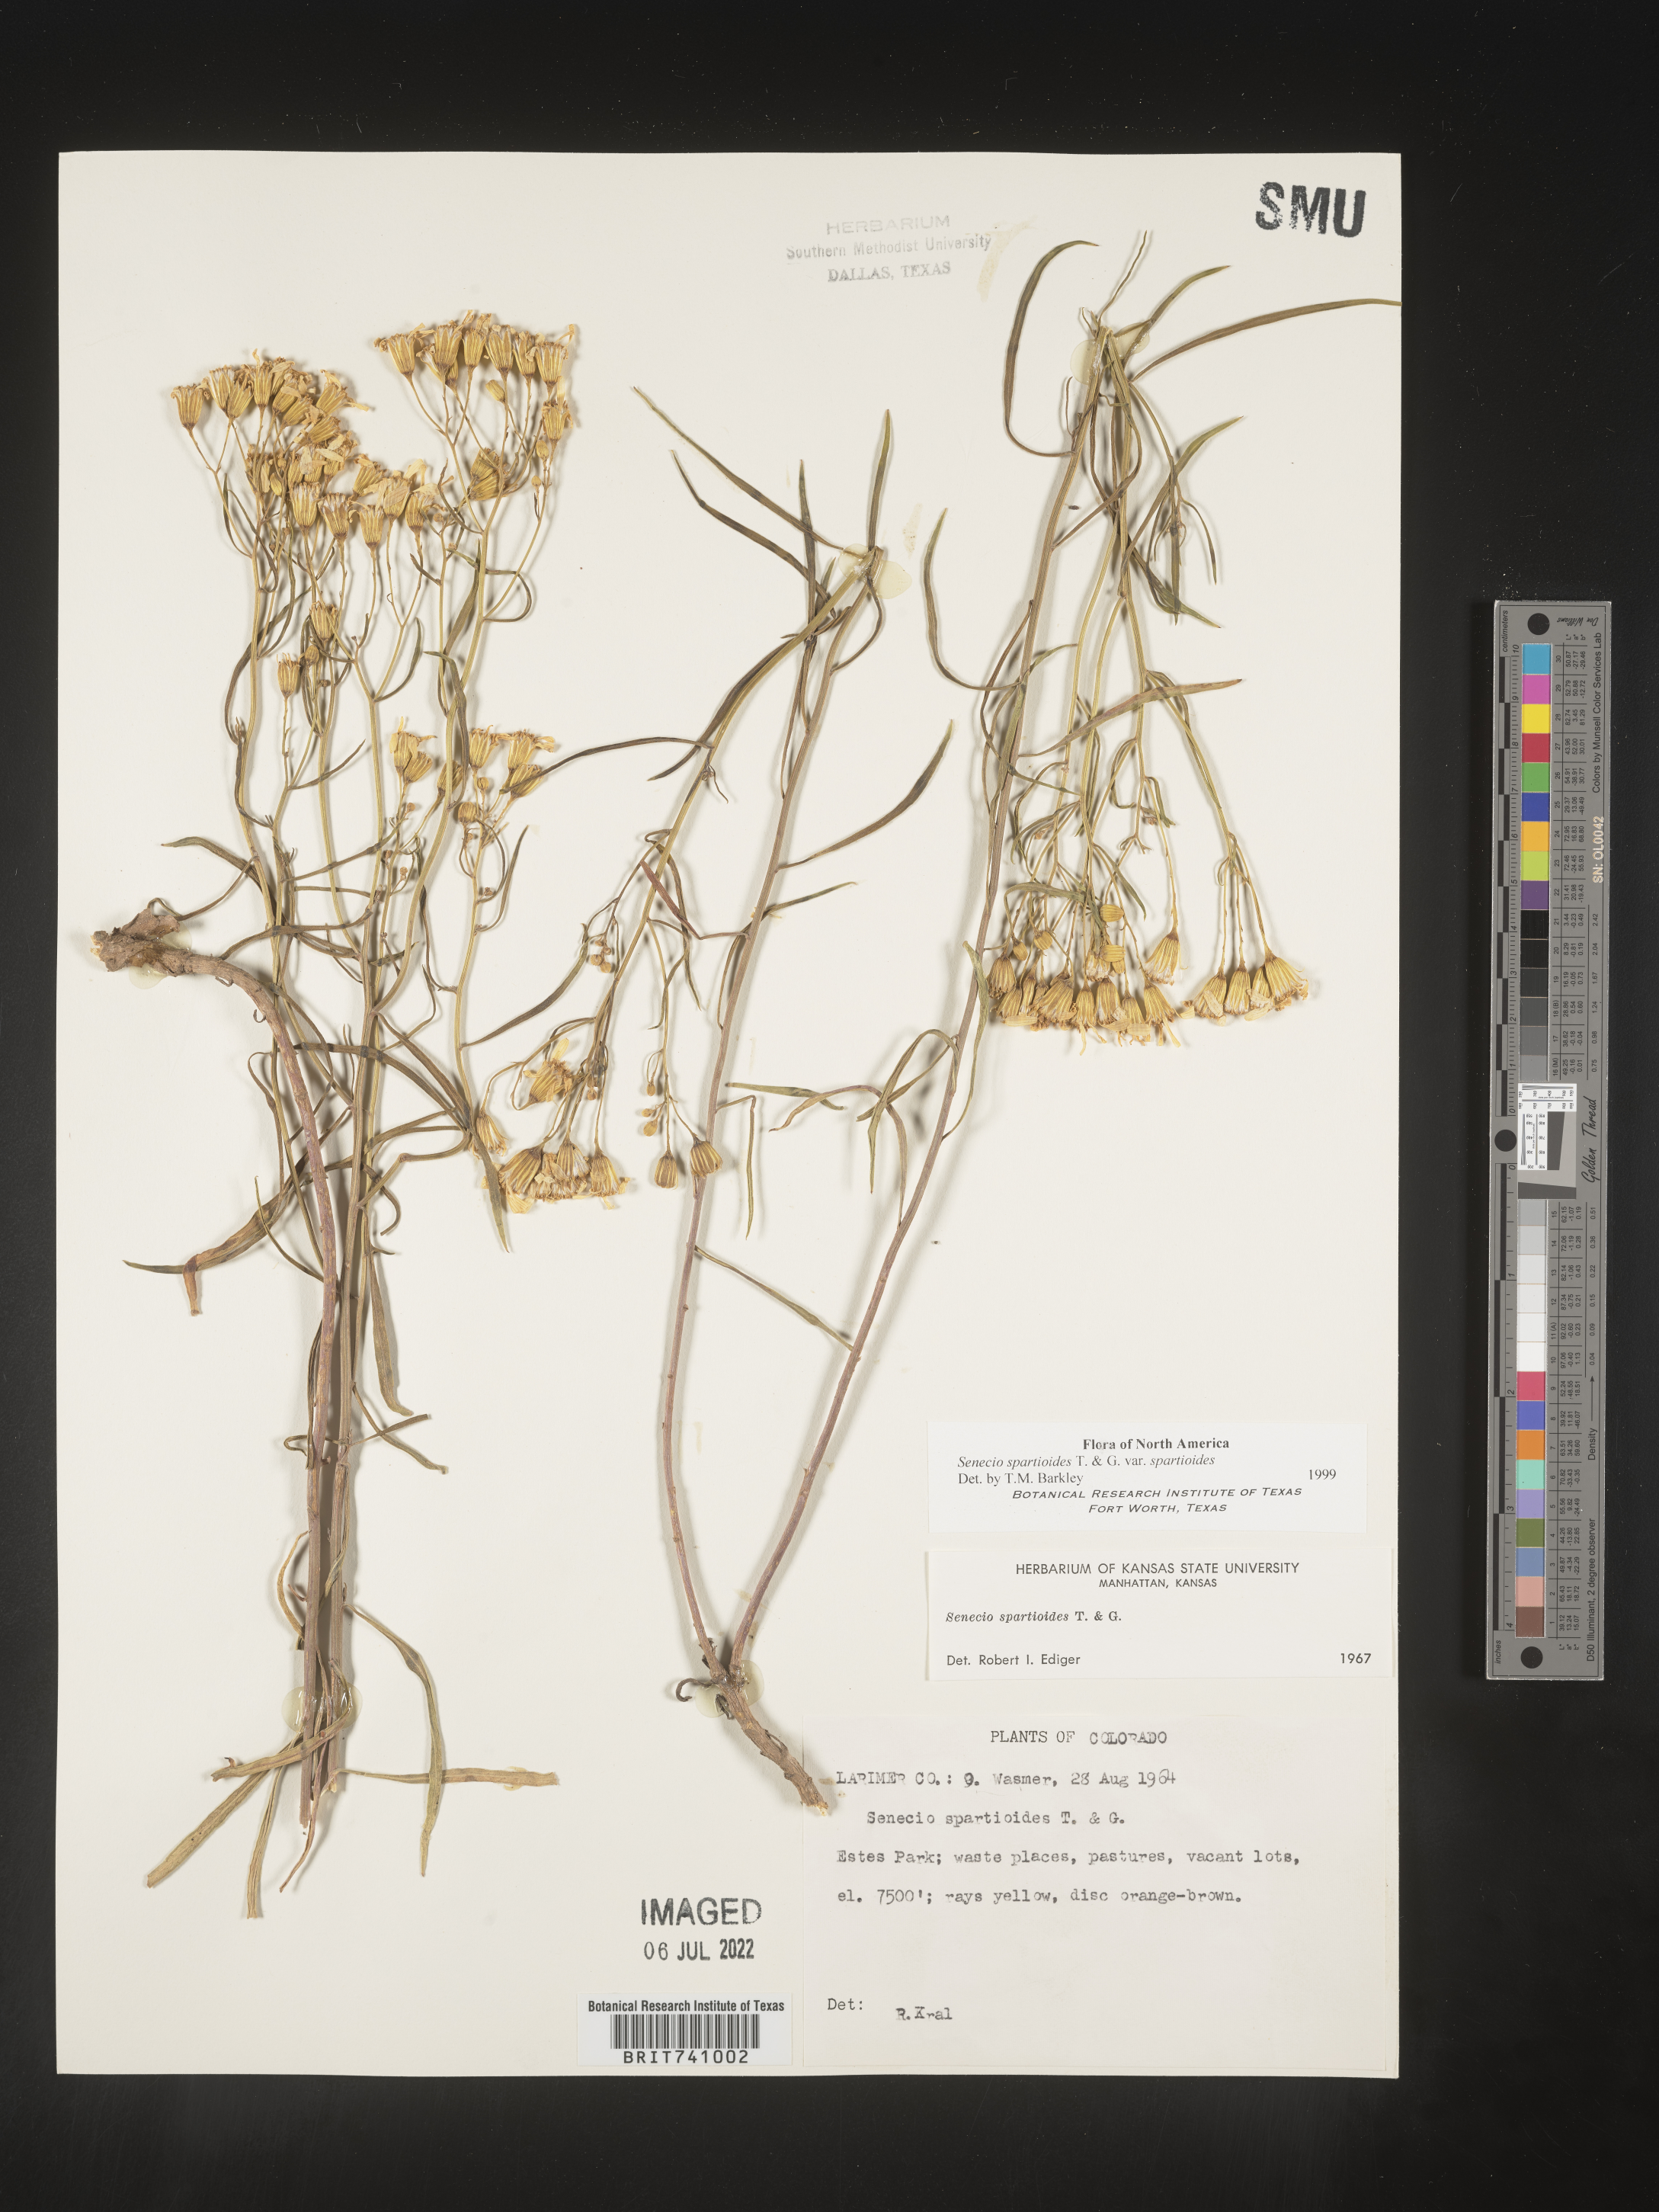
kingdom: Plantae
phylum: Tracheophyta
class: Magnoliopsida
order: Asterales
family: Asteraceae
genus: Senecio
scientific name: Senecio spartioides
